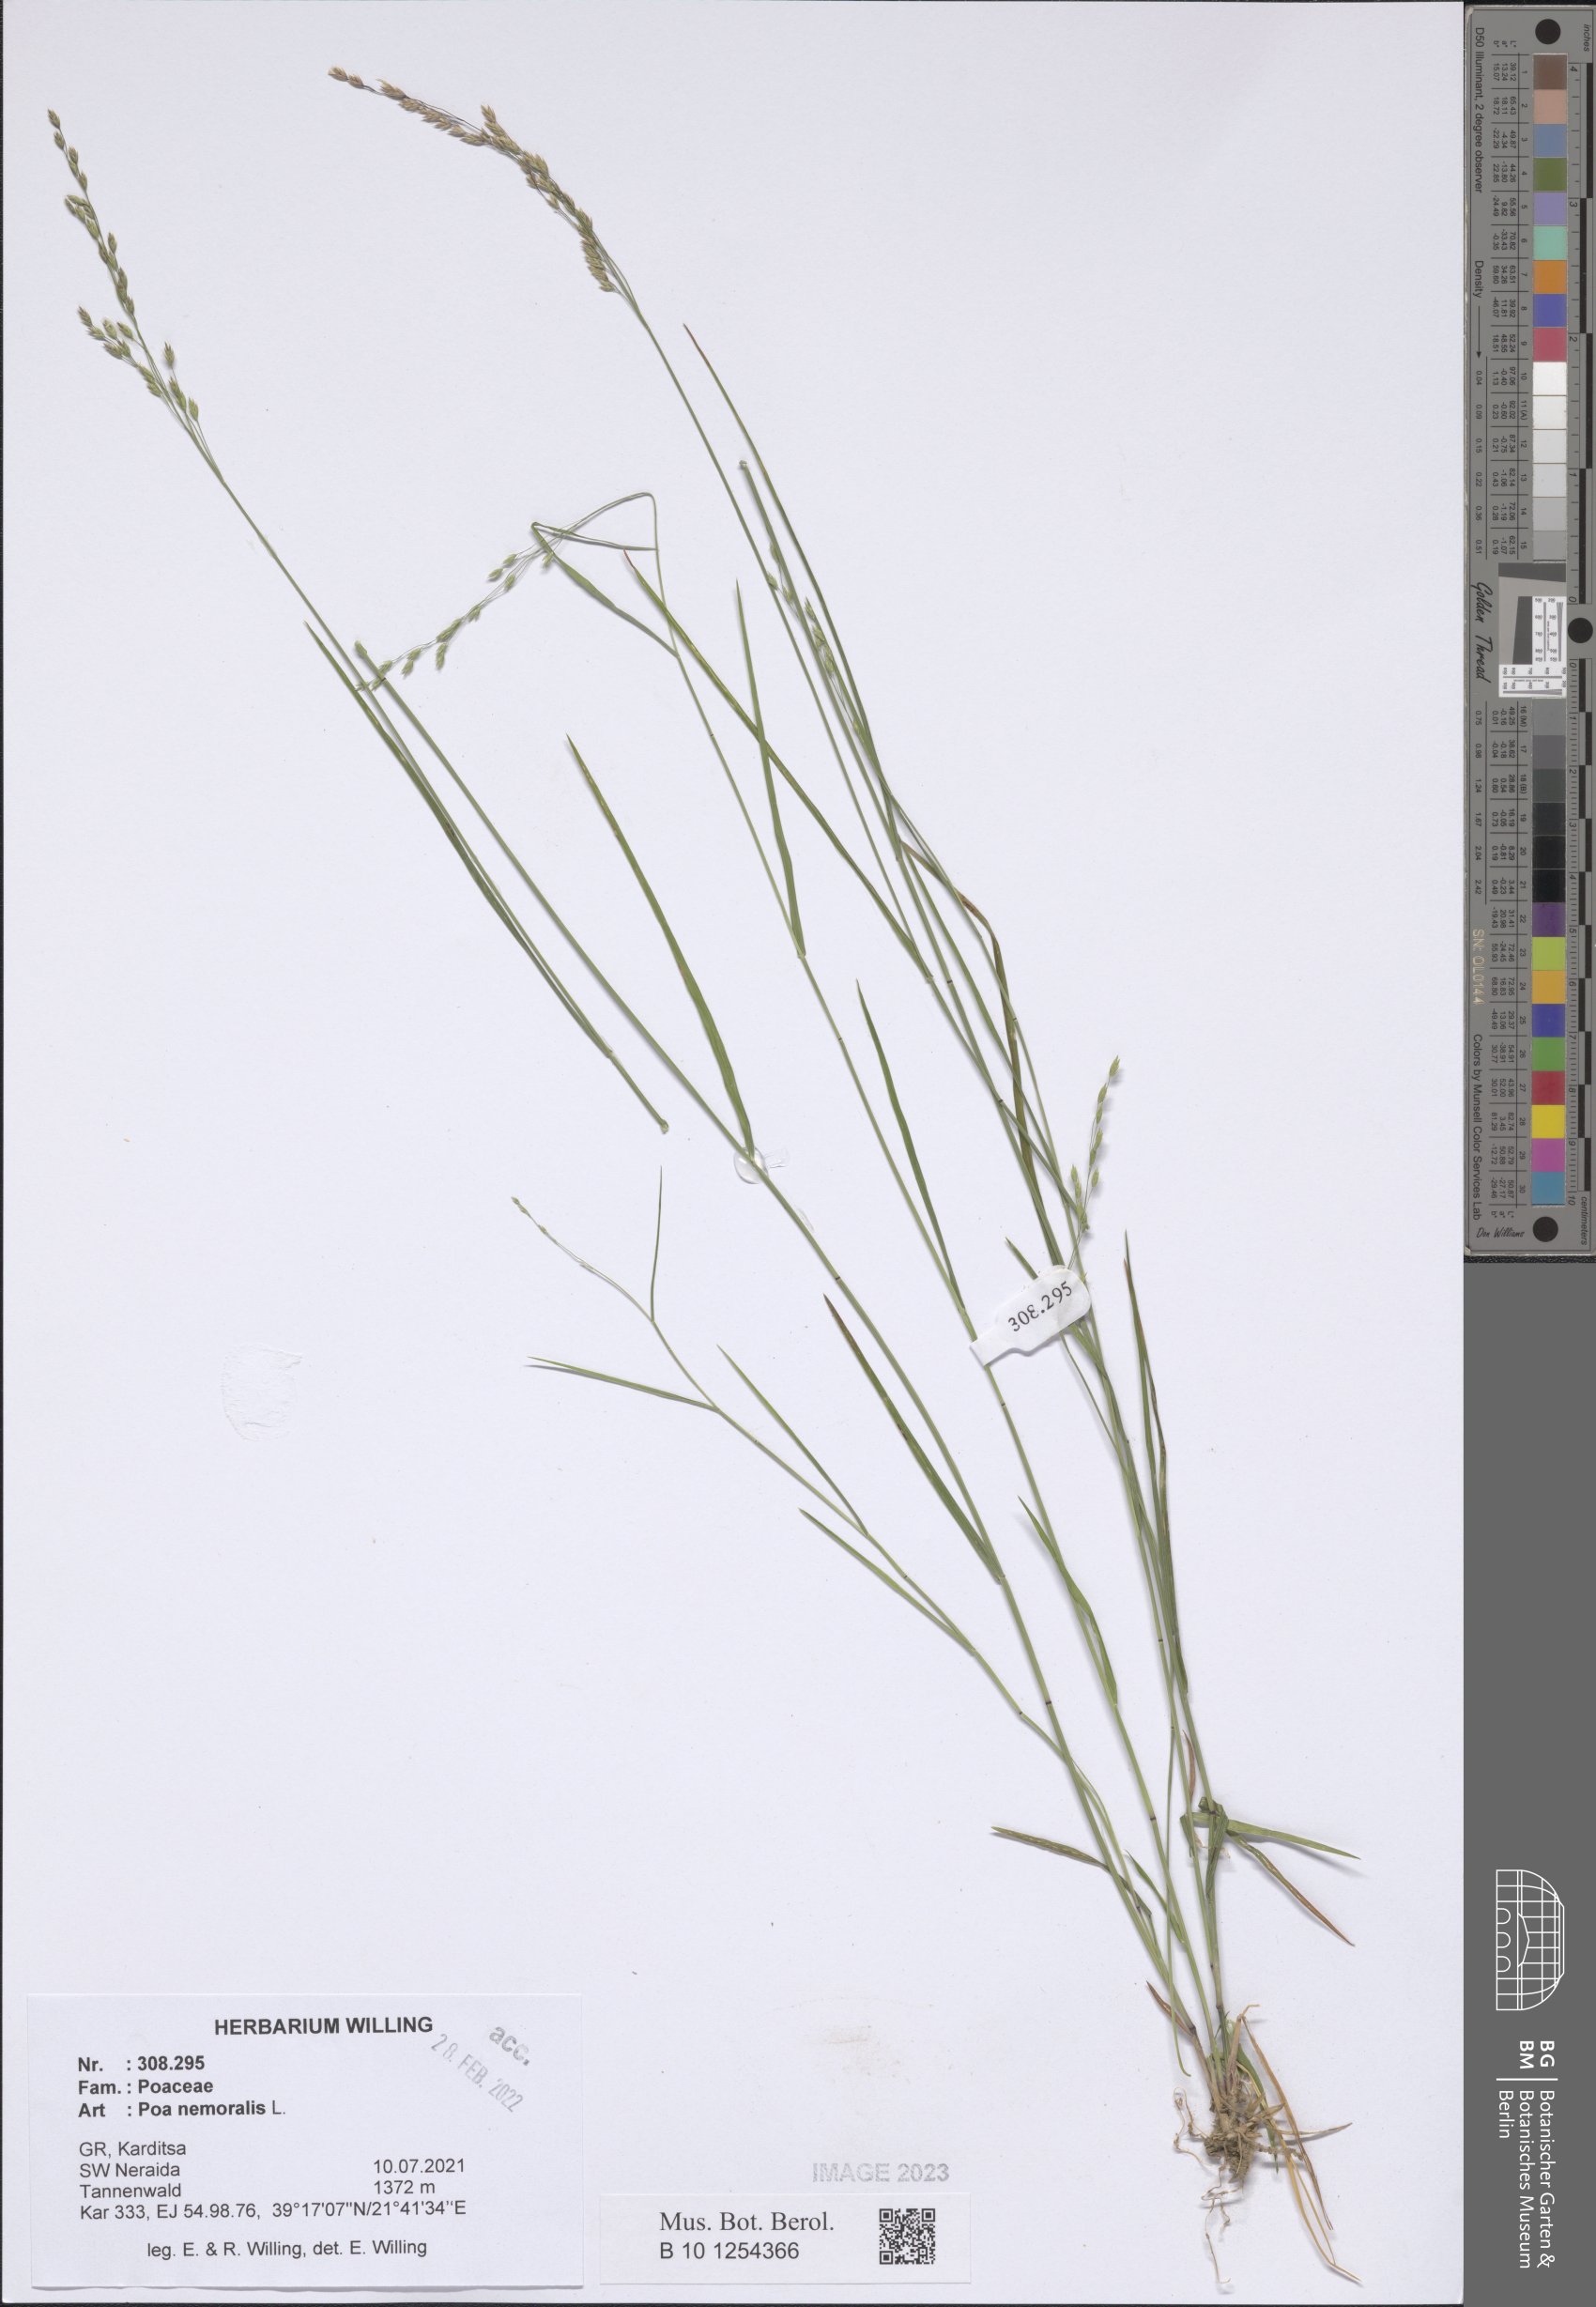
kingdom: Plantae
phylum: Tracheophyta
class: Liliopsida
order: Poales
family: Poaceae
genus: Poa
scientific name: Poa nemoralis
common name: Wood bluegrass
